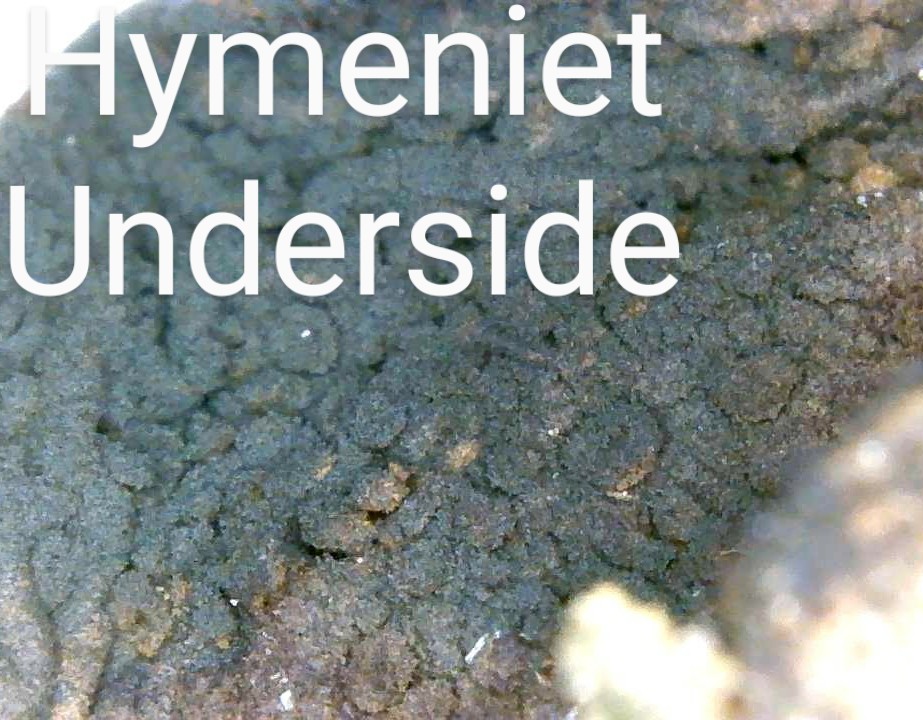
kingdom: Fungi
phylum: Basidiomycota
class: Agaricomycetes
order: Auriculariales
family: Auriculariaceae
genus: Exidia
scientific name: Exidia nigricans
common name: almindelig bævretop
